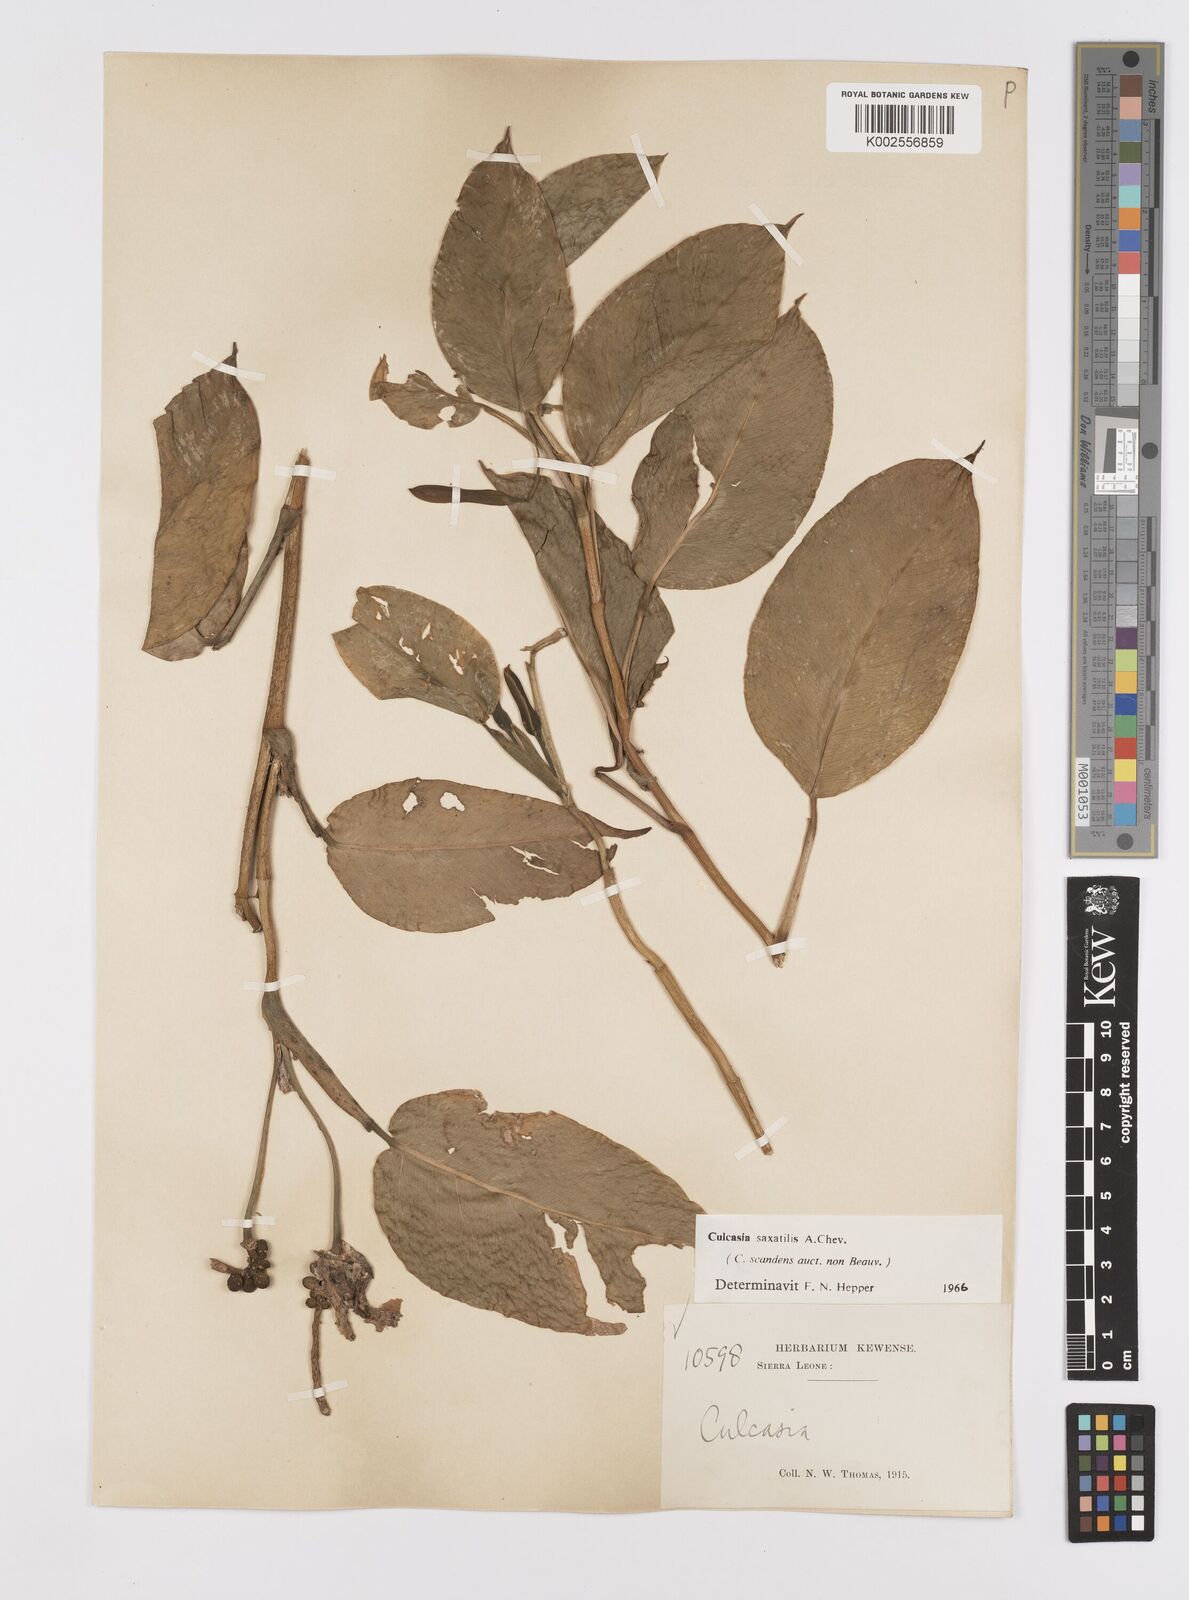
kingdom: Plantae
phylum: Tracheophyta
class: Liliopsida
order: Alismatales
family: Araceae
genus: Culcasia
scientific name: Culcasia scandens
